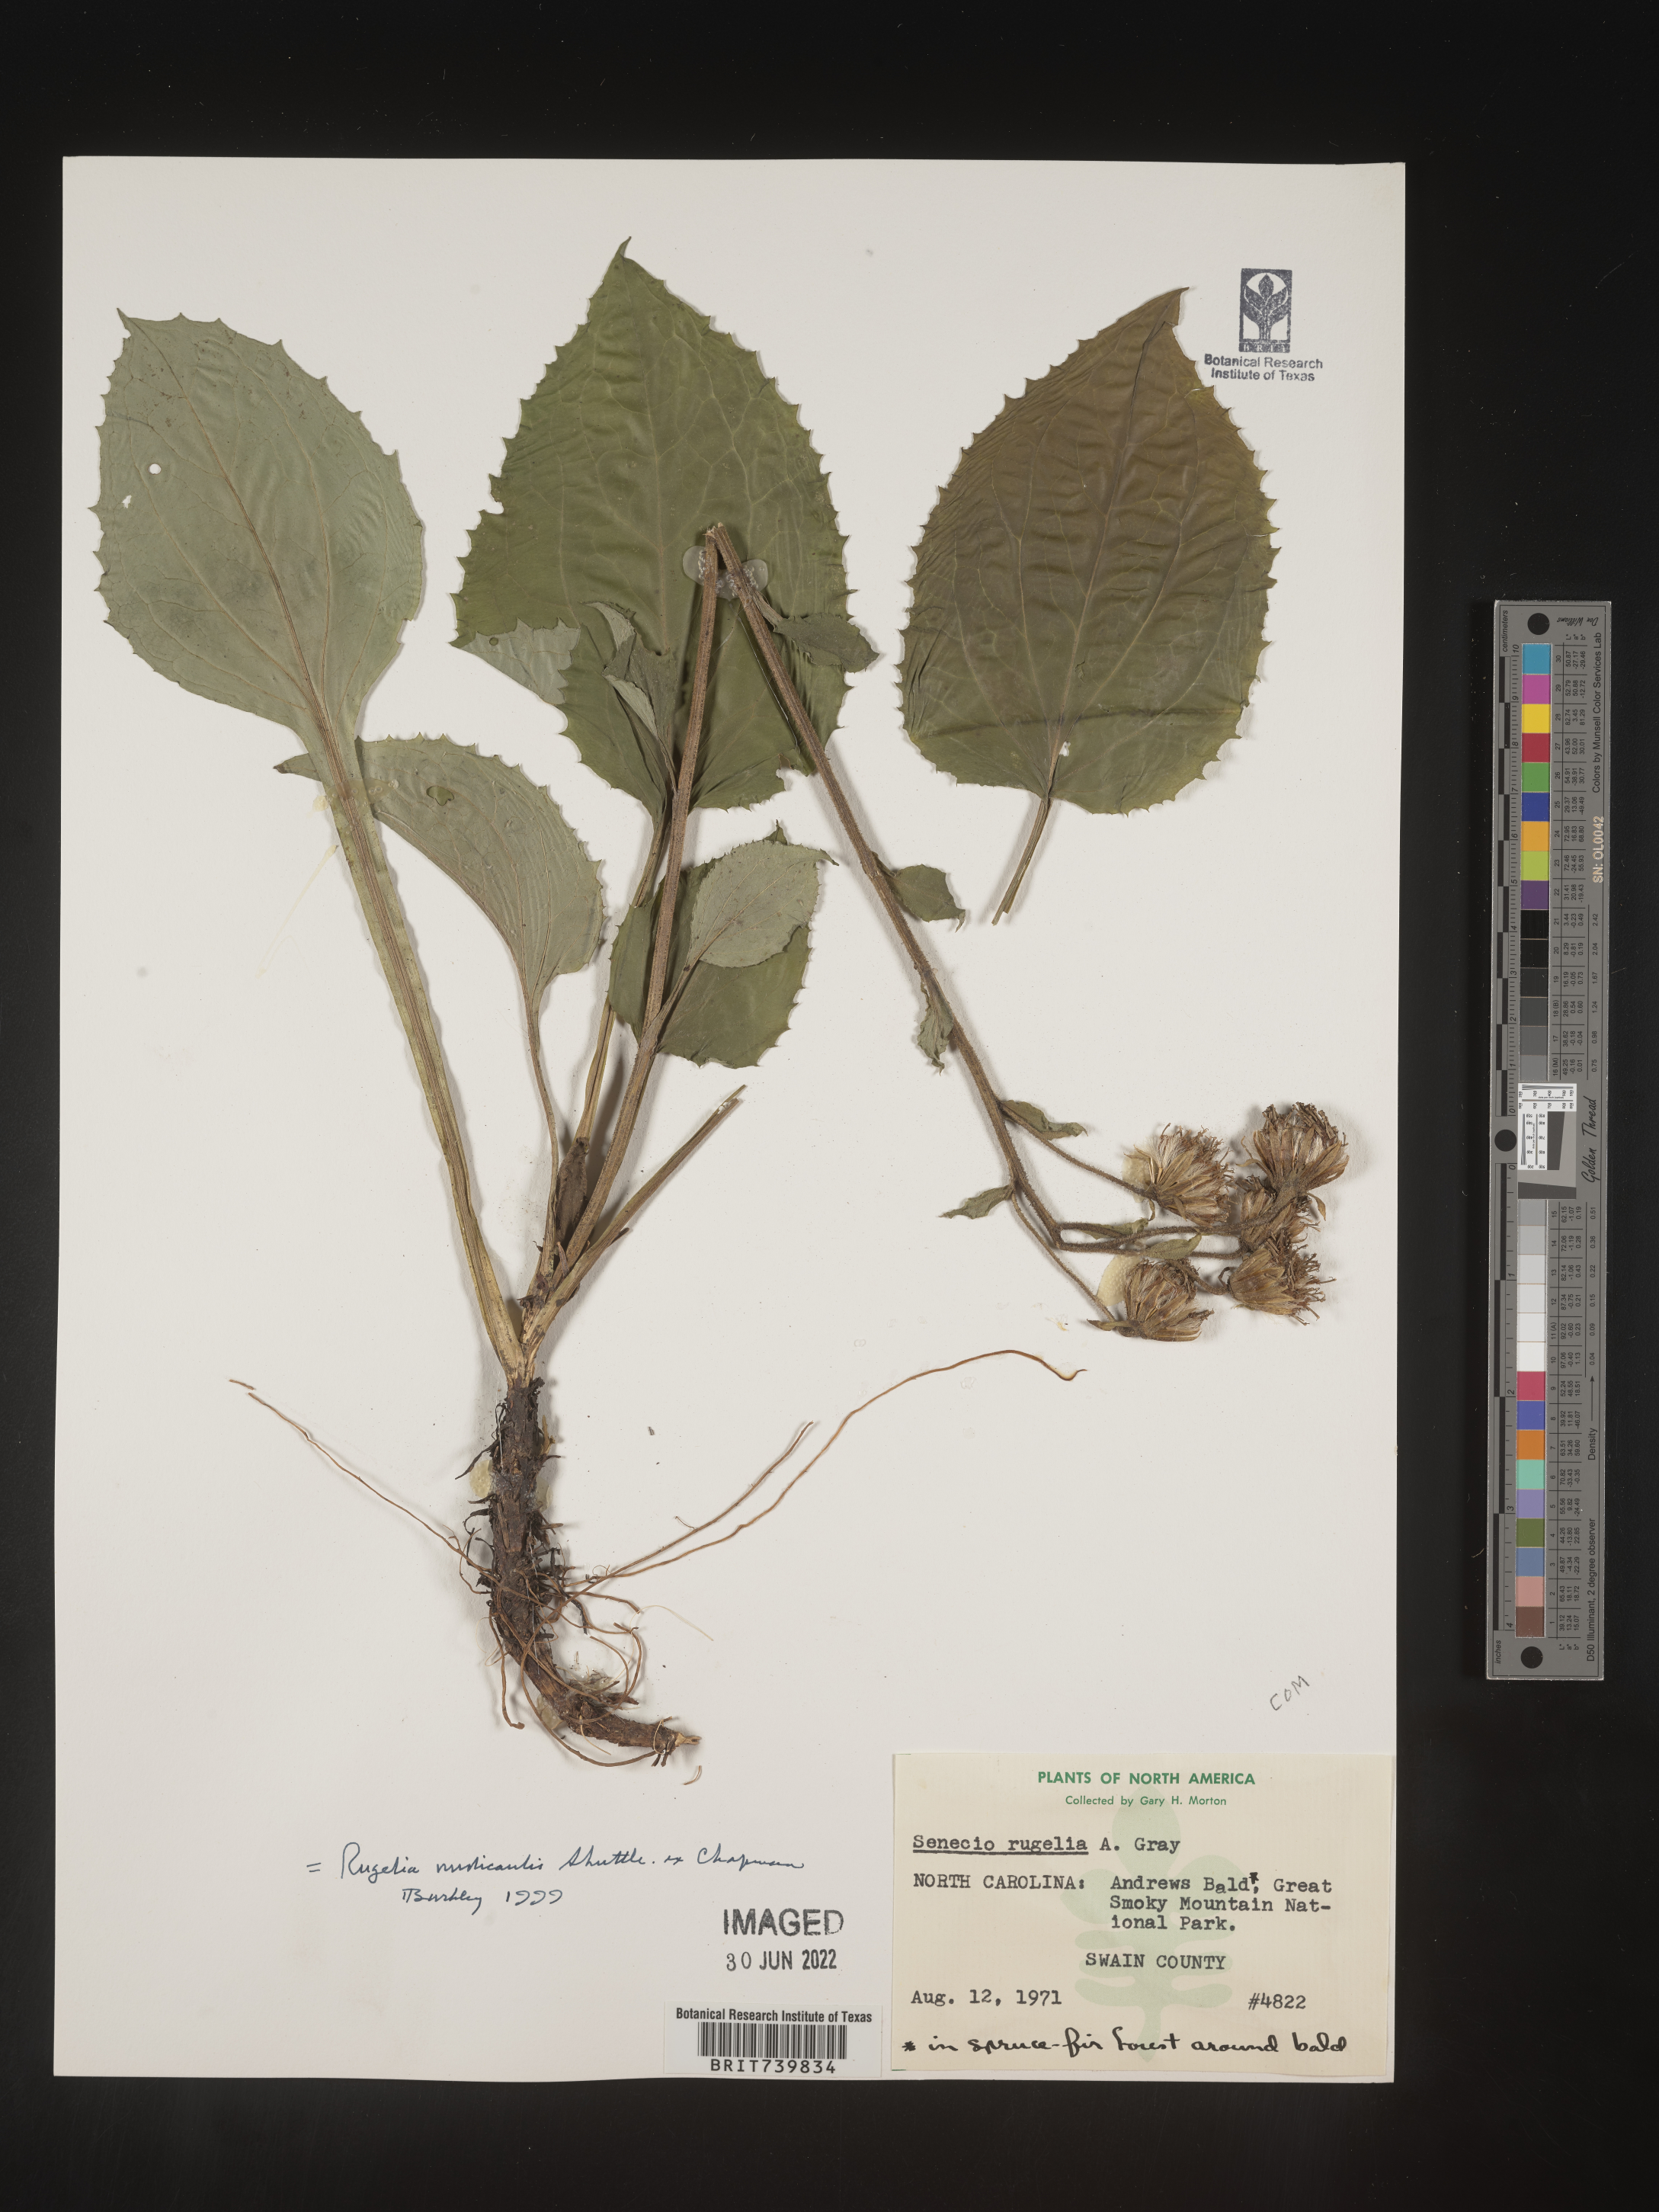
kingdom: Plantae
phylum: Tracheophyta
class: Magnoliopsida
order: Asterales
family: Asteraceae
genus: Rugelia
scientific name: Rugelia nudicaulis
